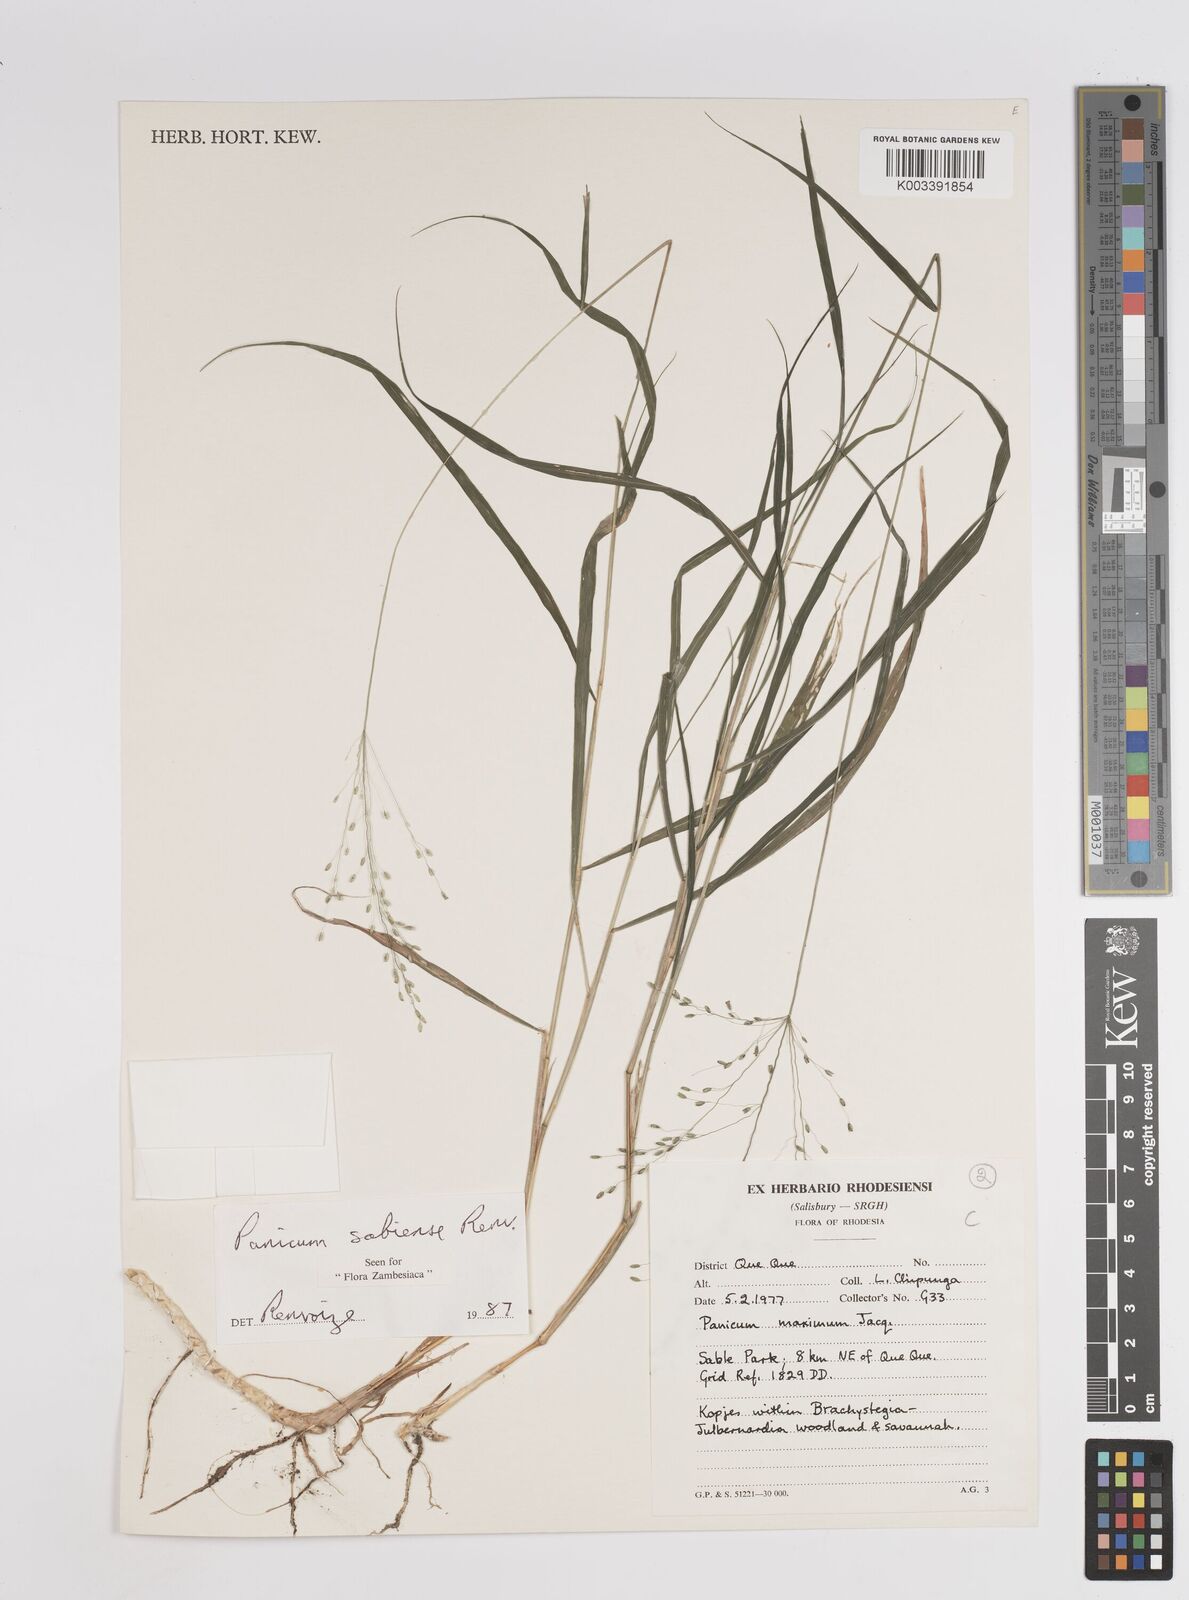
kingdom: Plantae
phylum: Tracheophyta
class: Liliopsida
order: Poales
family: Poaceae
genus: Panicum
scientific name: Panicum trichoides
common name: Tickle grass
